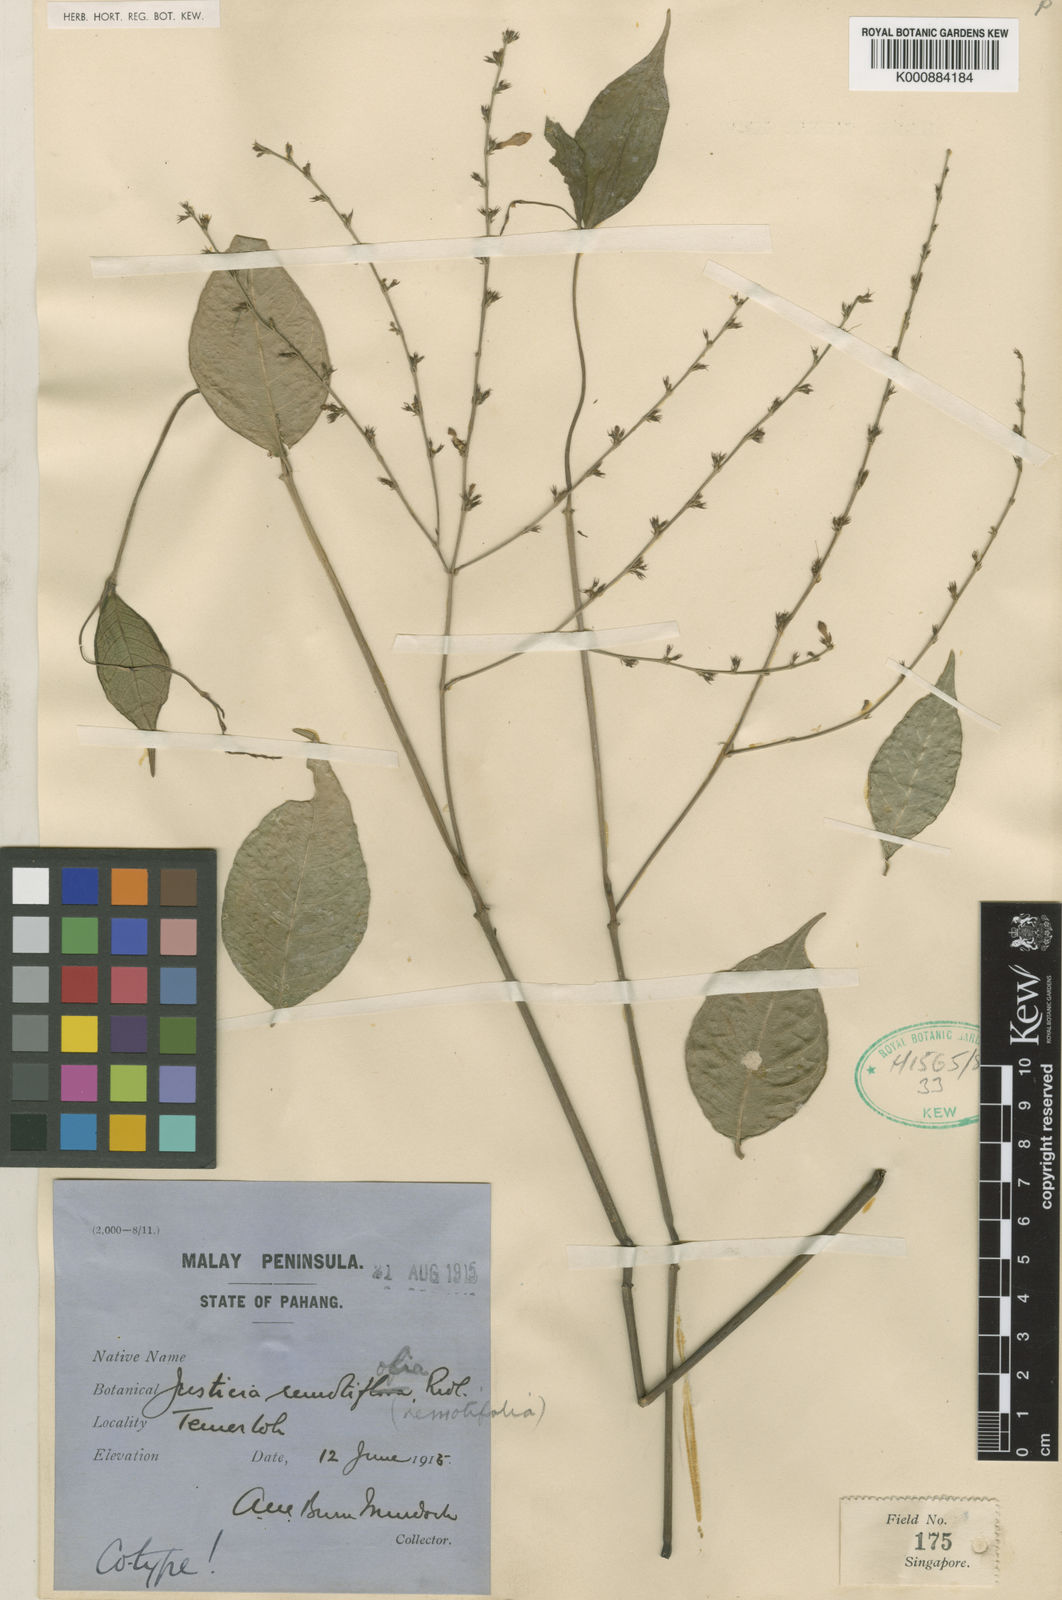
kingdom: Plantae
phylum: Tracheophyta
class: Magnoliopsida
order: Lamiales
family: Acanthaceae
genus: Justicia
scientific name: Justicia remotifolia
